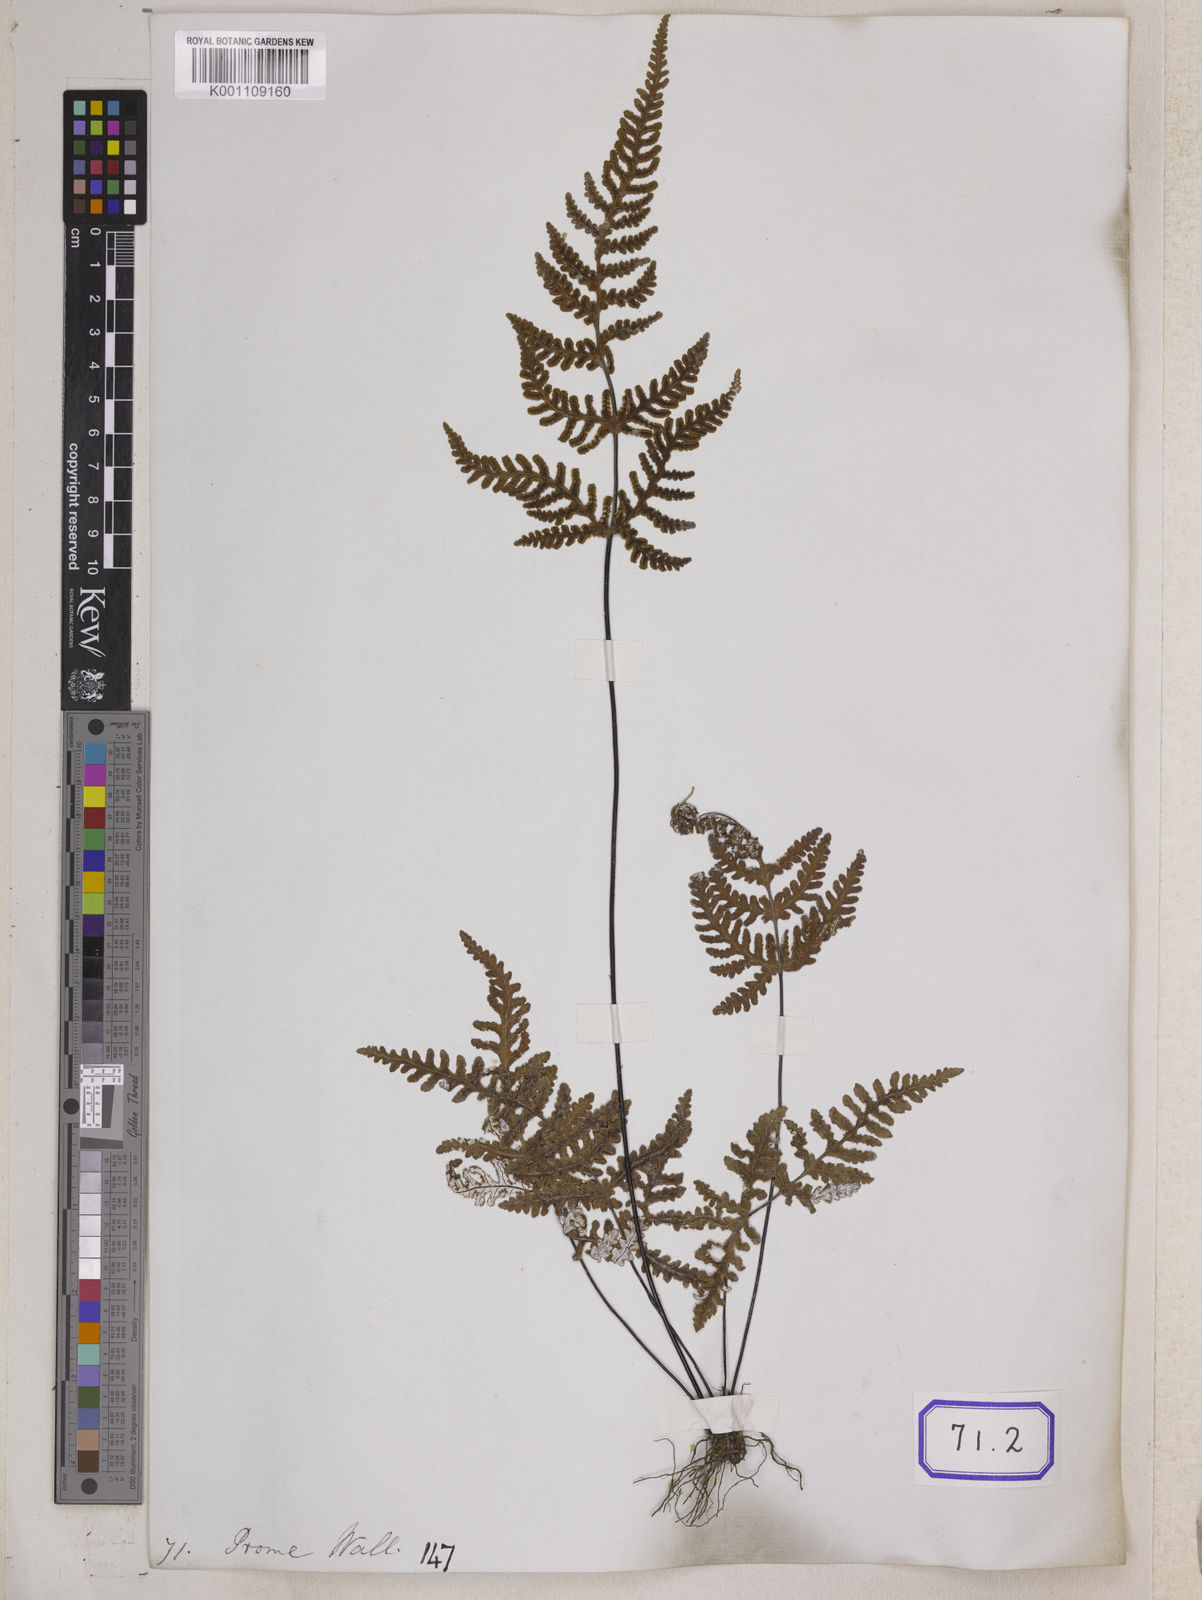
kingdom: Plantae
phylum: Tracheophyta
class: Polypodiopsida
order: Polypodiales
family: Pteridaceae
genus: Argyrochosma
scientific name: Argyrochosma dealbata
